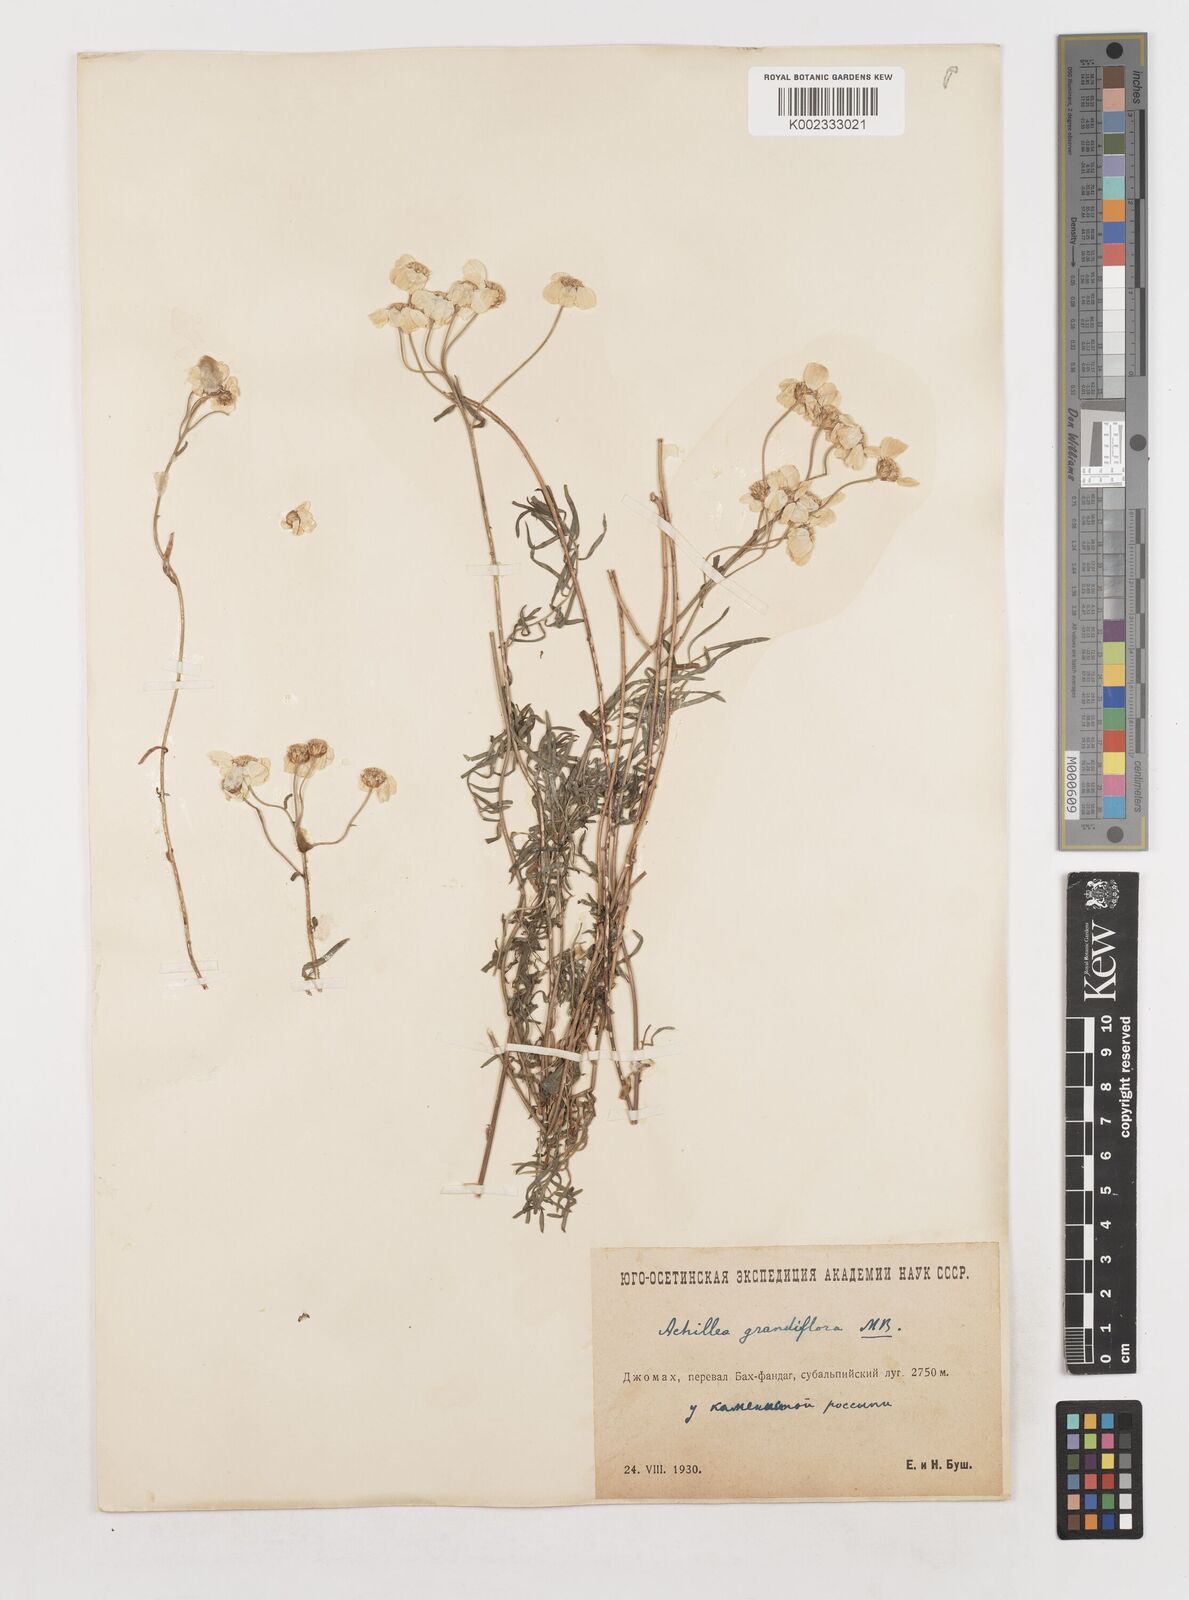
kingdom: Plantae
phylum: Tracheophyta
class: Magnoliopsida
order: Asterales
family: Asteraceae
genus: Achillea
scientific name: Achillea ptarmicifolia
